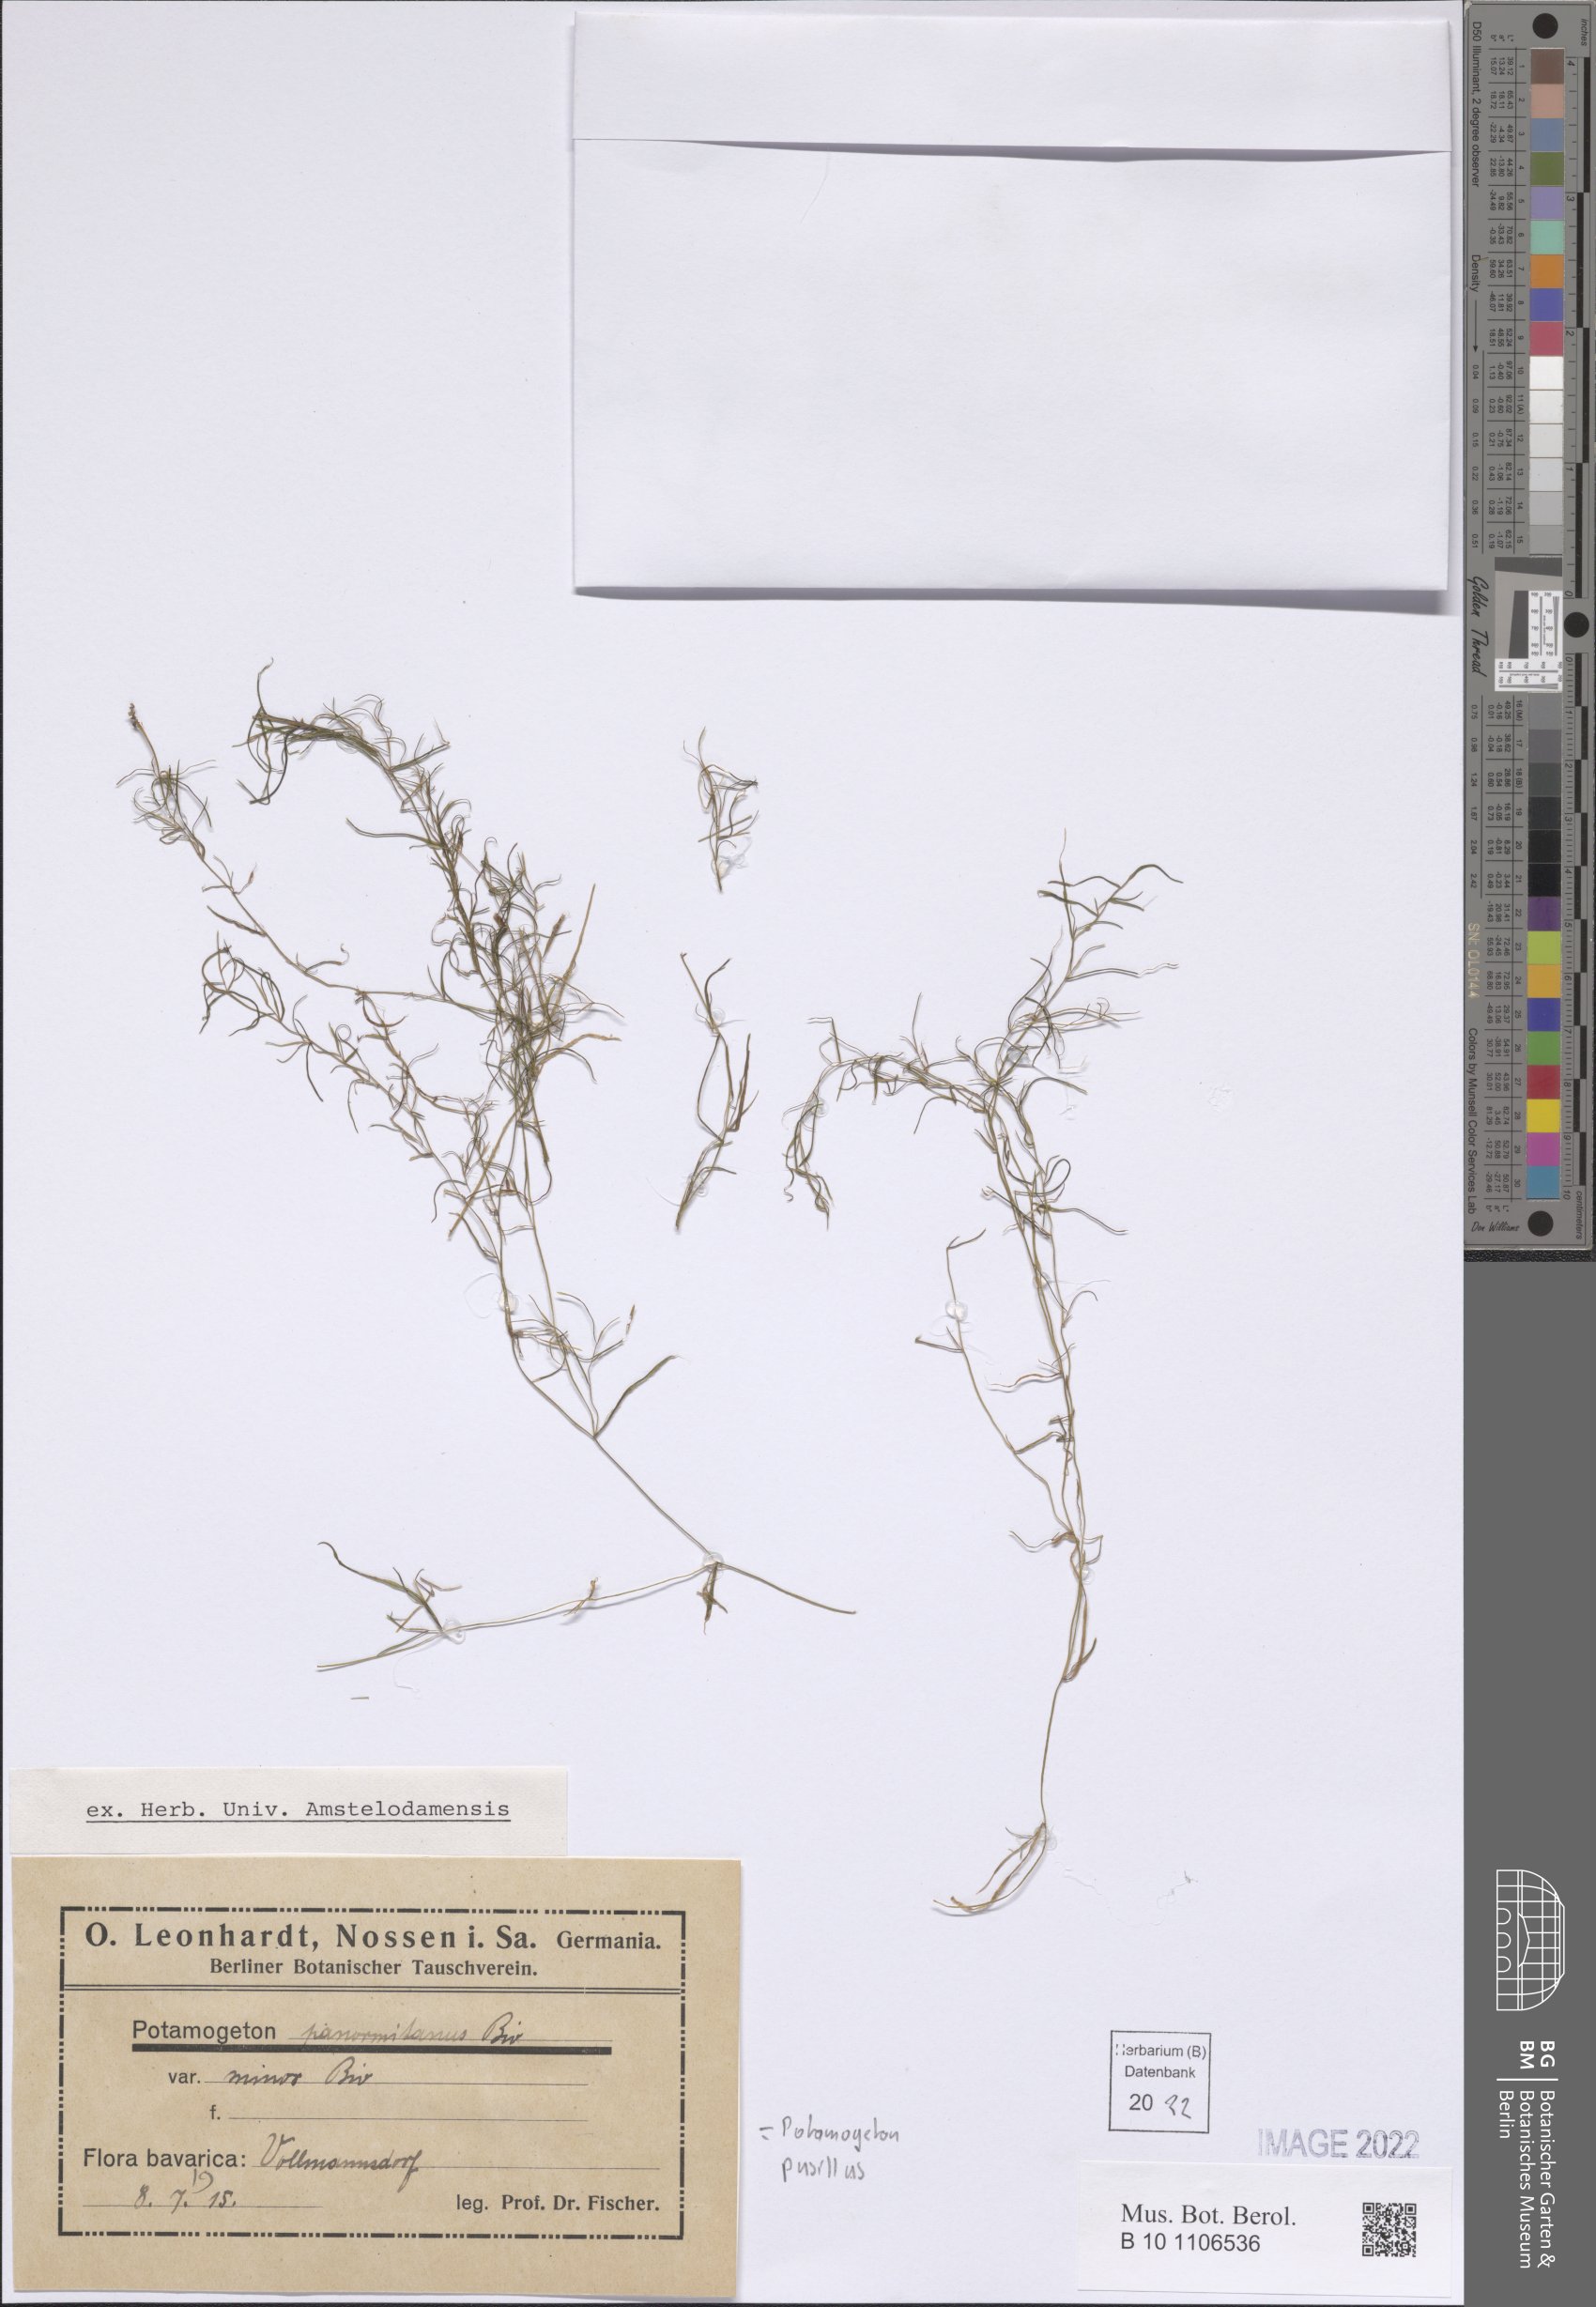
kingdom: Plantae
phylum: Tracheophyta
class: Liliopsida
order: Alismatales
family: Potamogetonaceae
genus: Potamogeton
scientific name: Potamogeton pusillus
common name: Lesser pondweed
